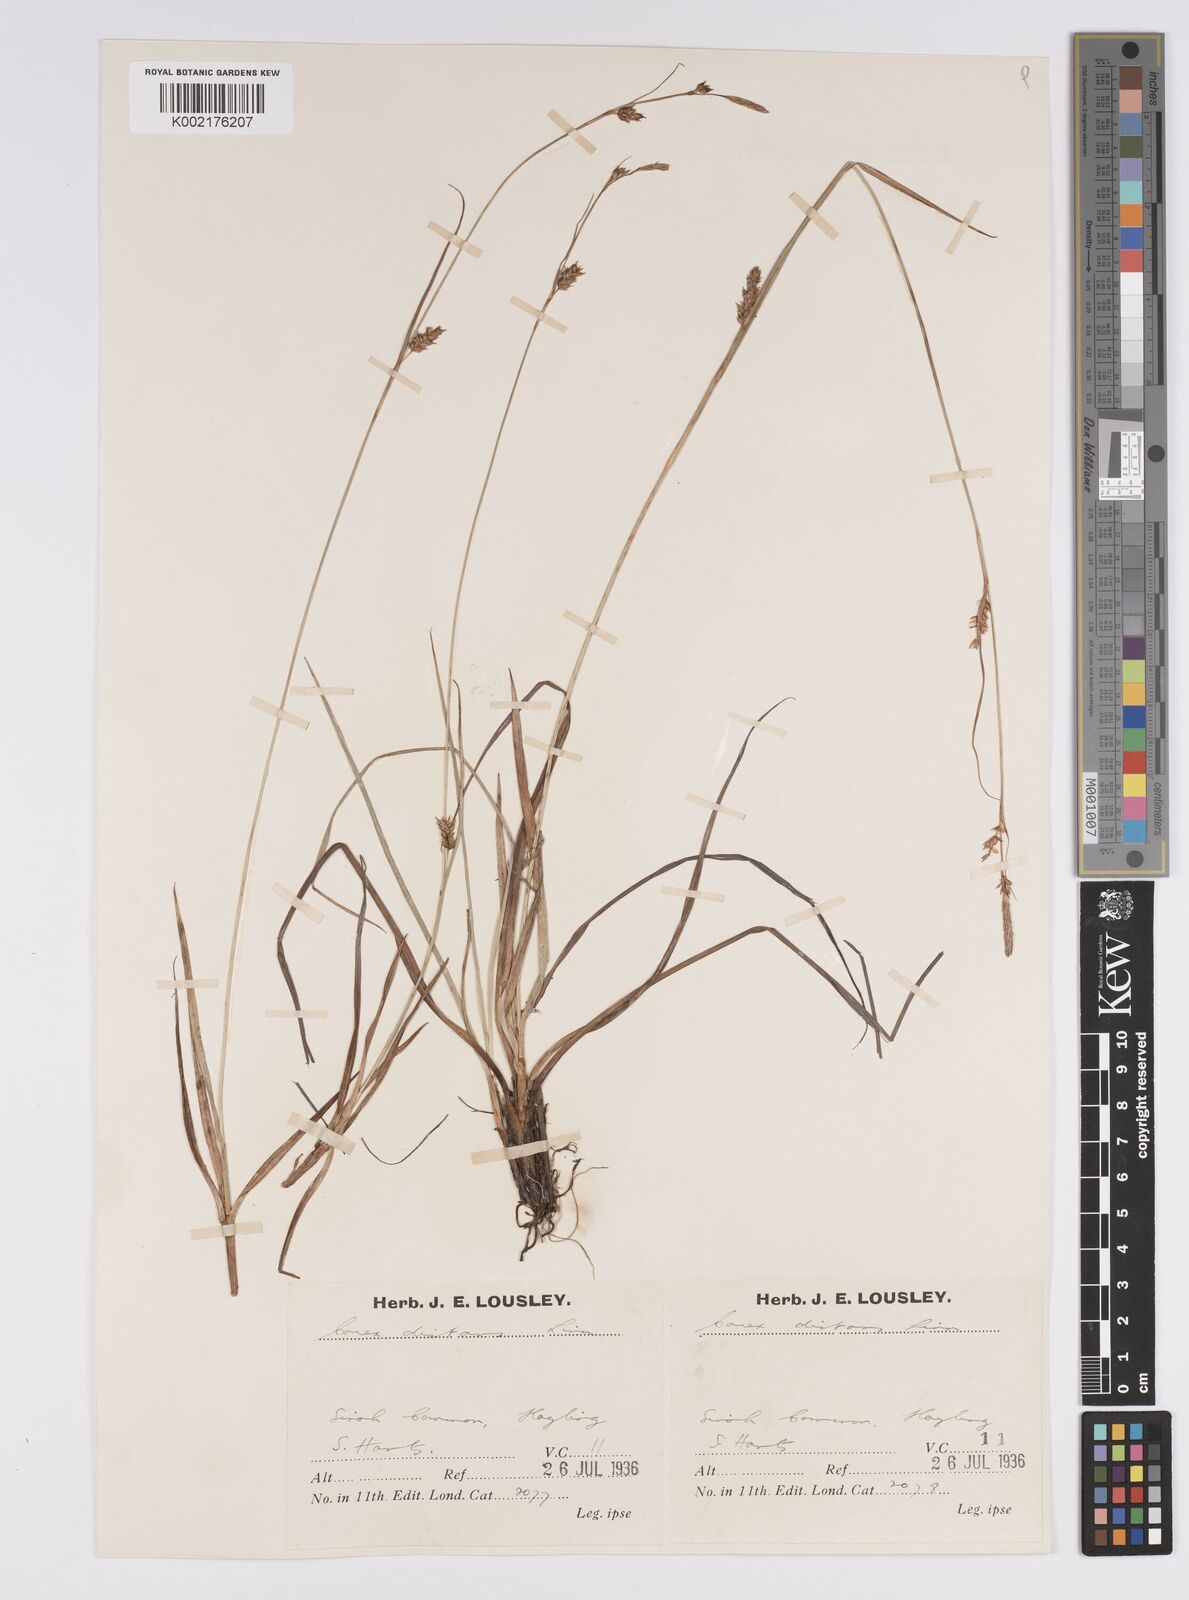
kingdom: Plantae
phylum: Tracheophyta
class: Liliopsida
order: Poales
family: Cyperaceae
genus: Carex
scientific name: Carex distans
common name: Distant sedge
